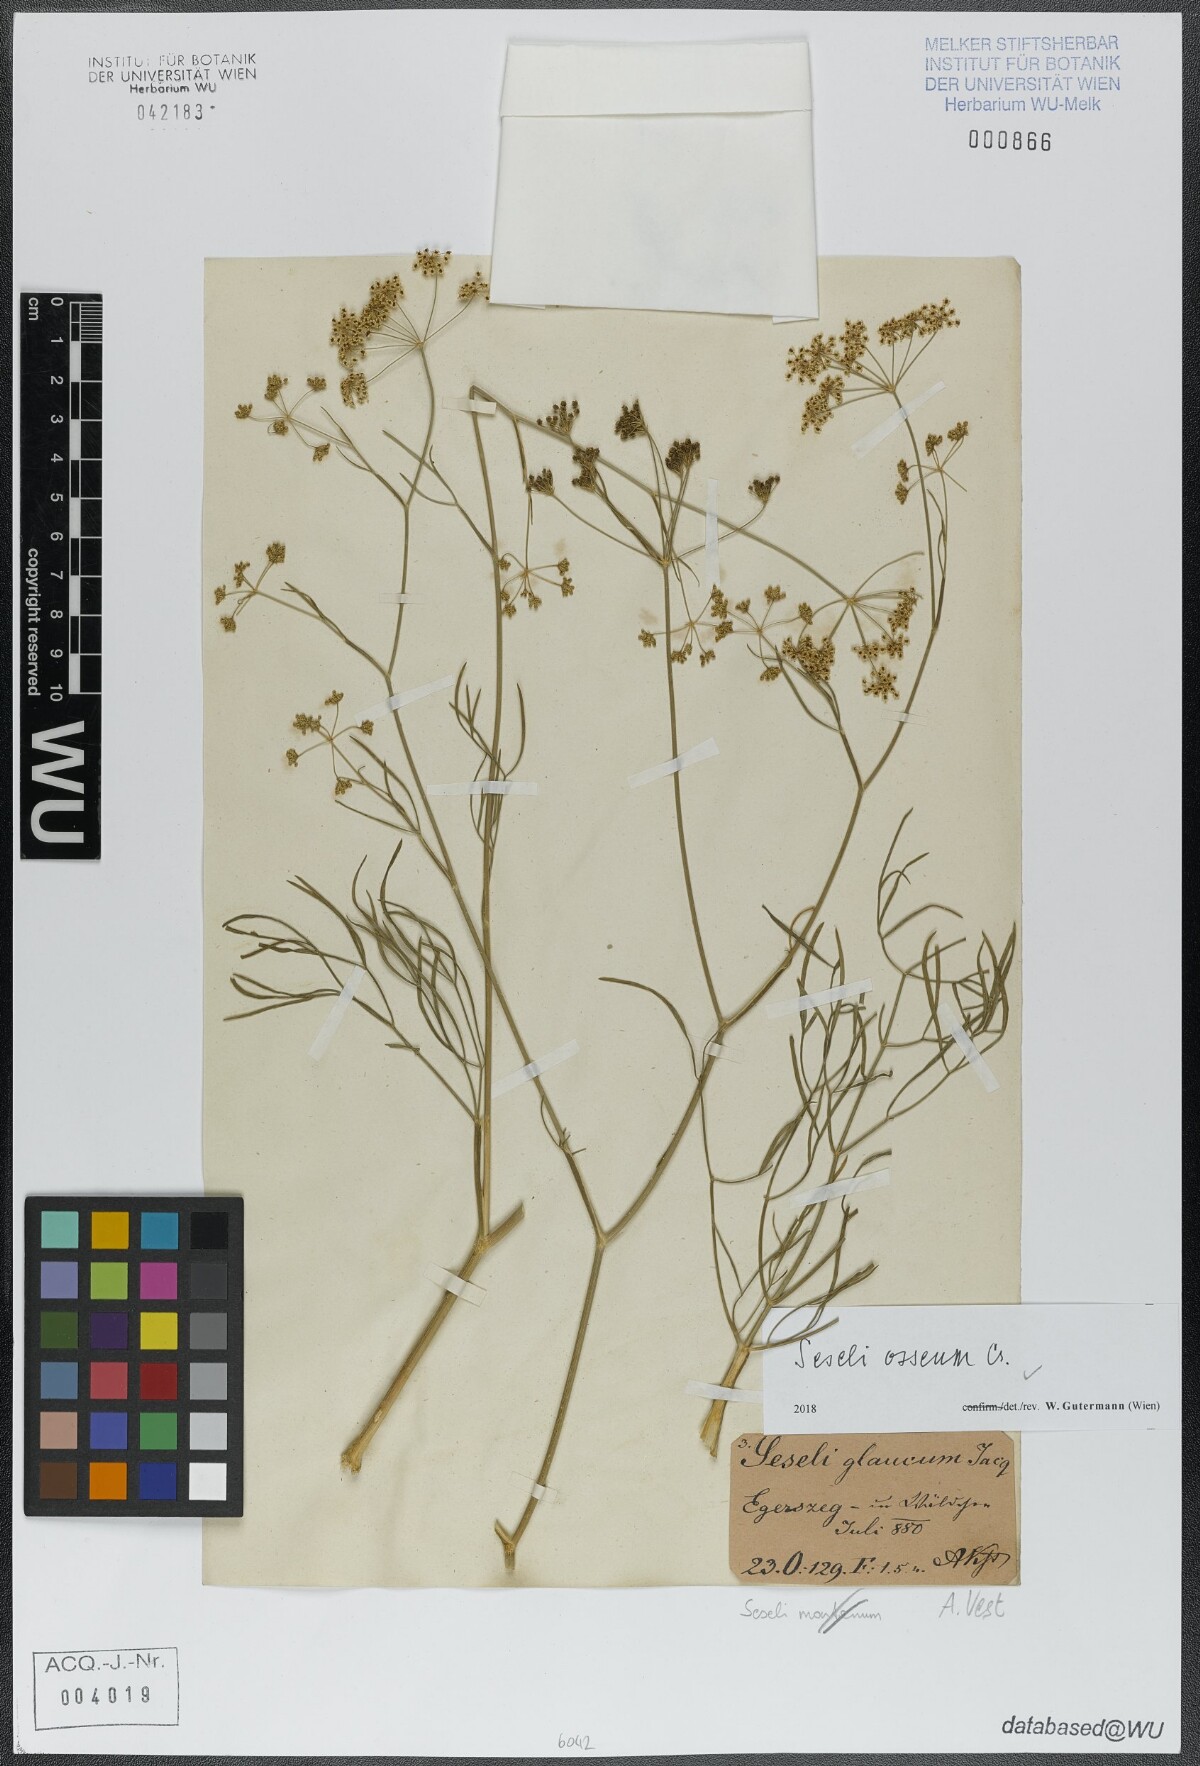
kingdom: Plantae
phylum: Tracheophyta
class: Magnoliopsida
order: Apiales
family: Apiaceae
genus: Seseli
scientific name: Seseli osseum
